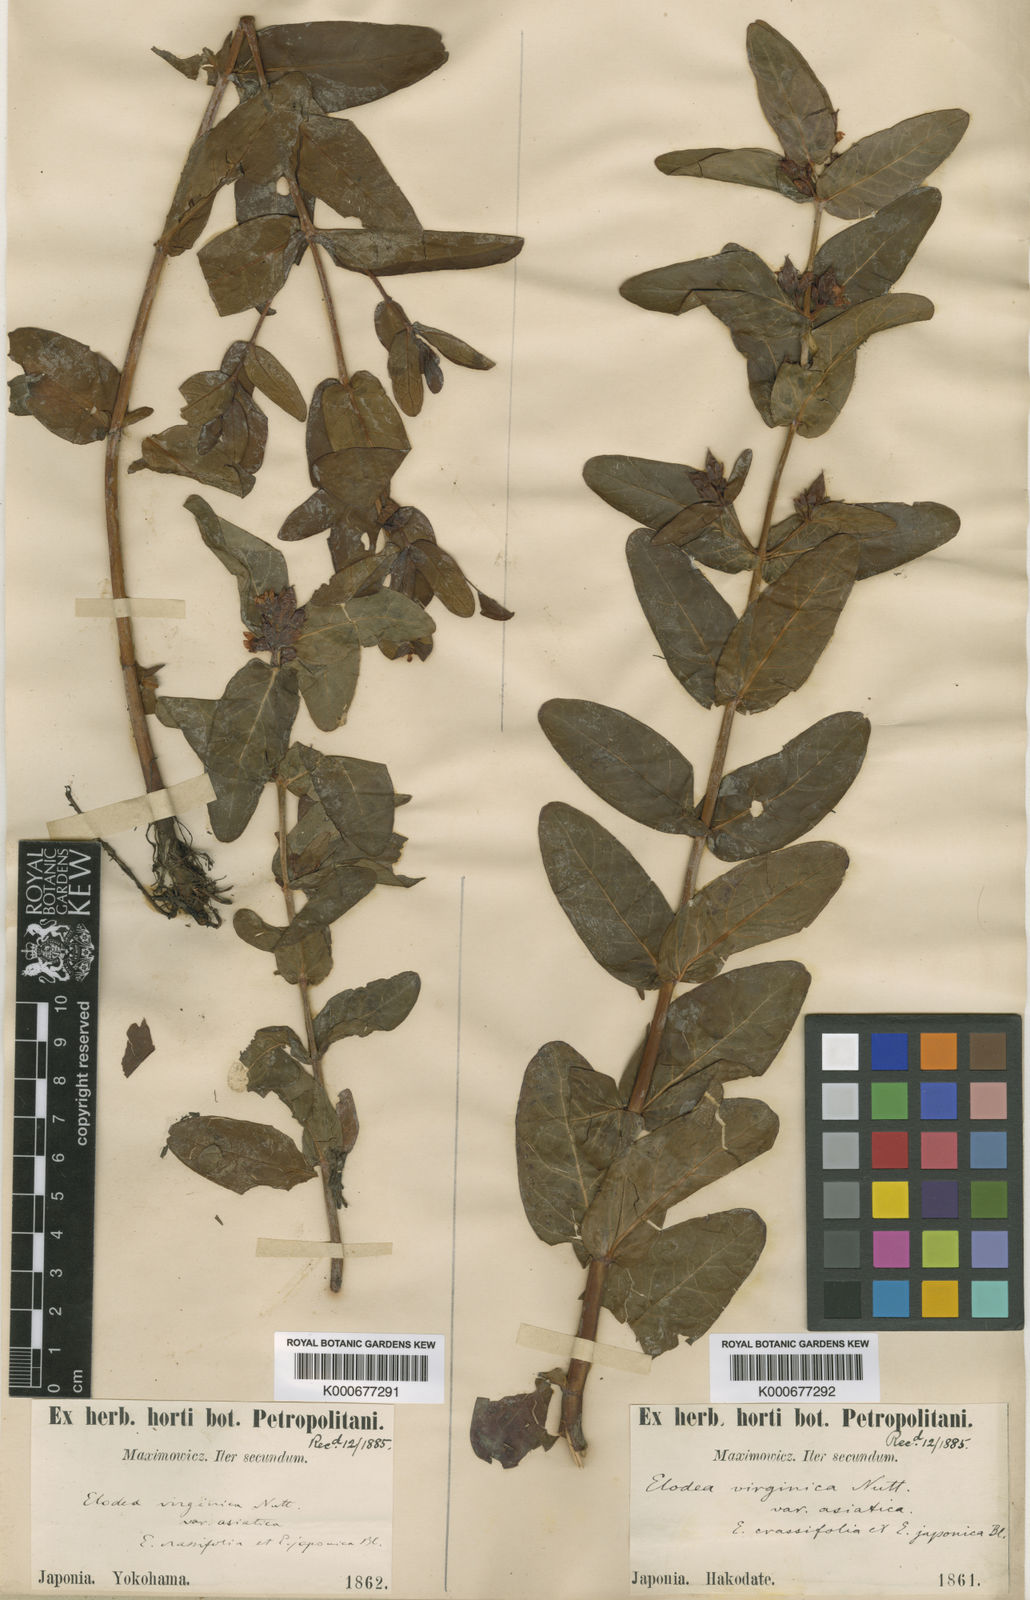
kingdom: Plantae
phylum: Tracheophyta
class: Magnoliopsida
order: Malpighiales
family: Hypericaceae
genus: Triadenum
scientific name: Triadenum japonicum
